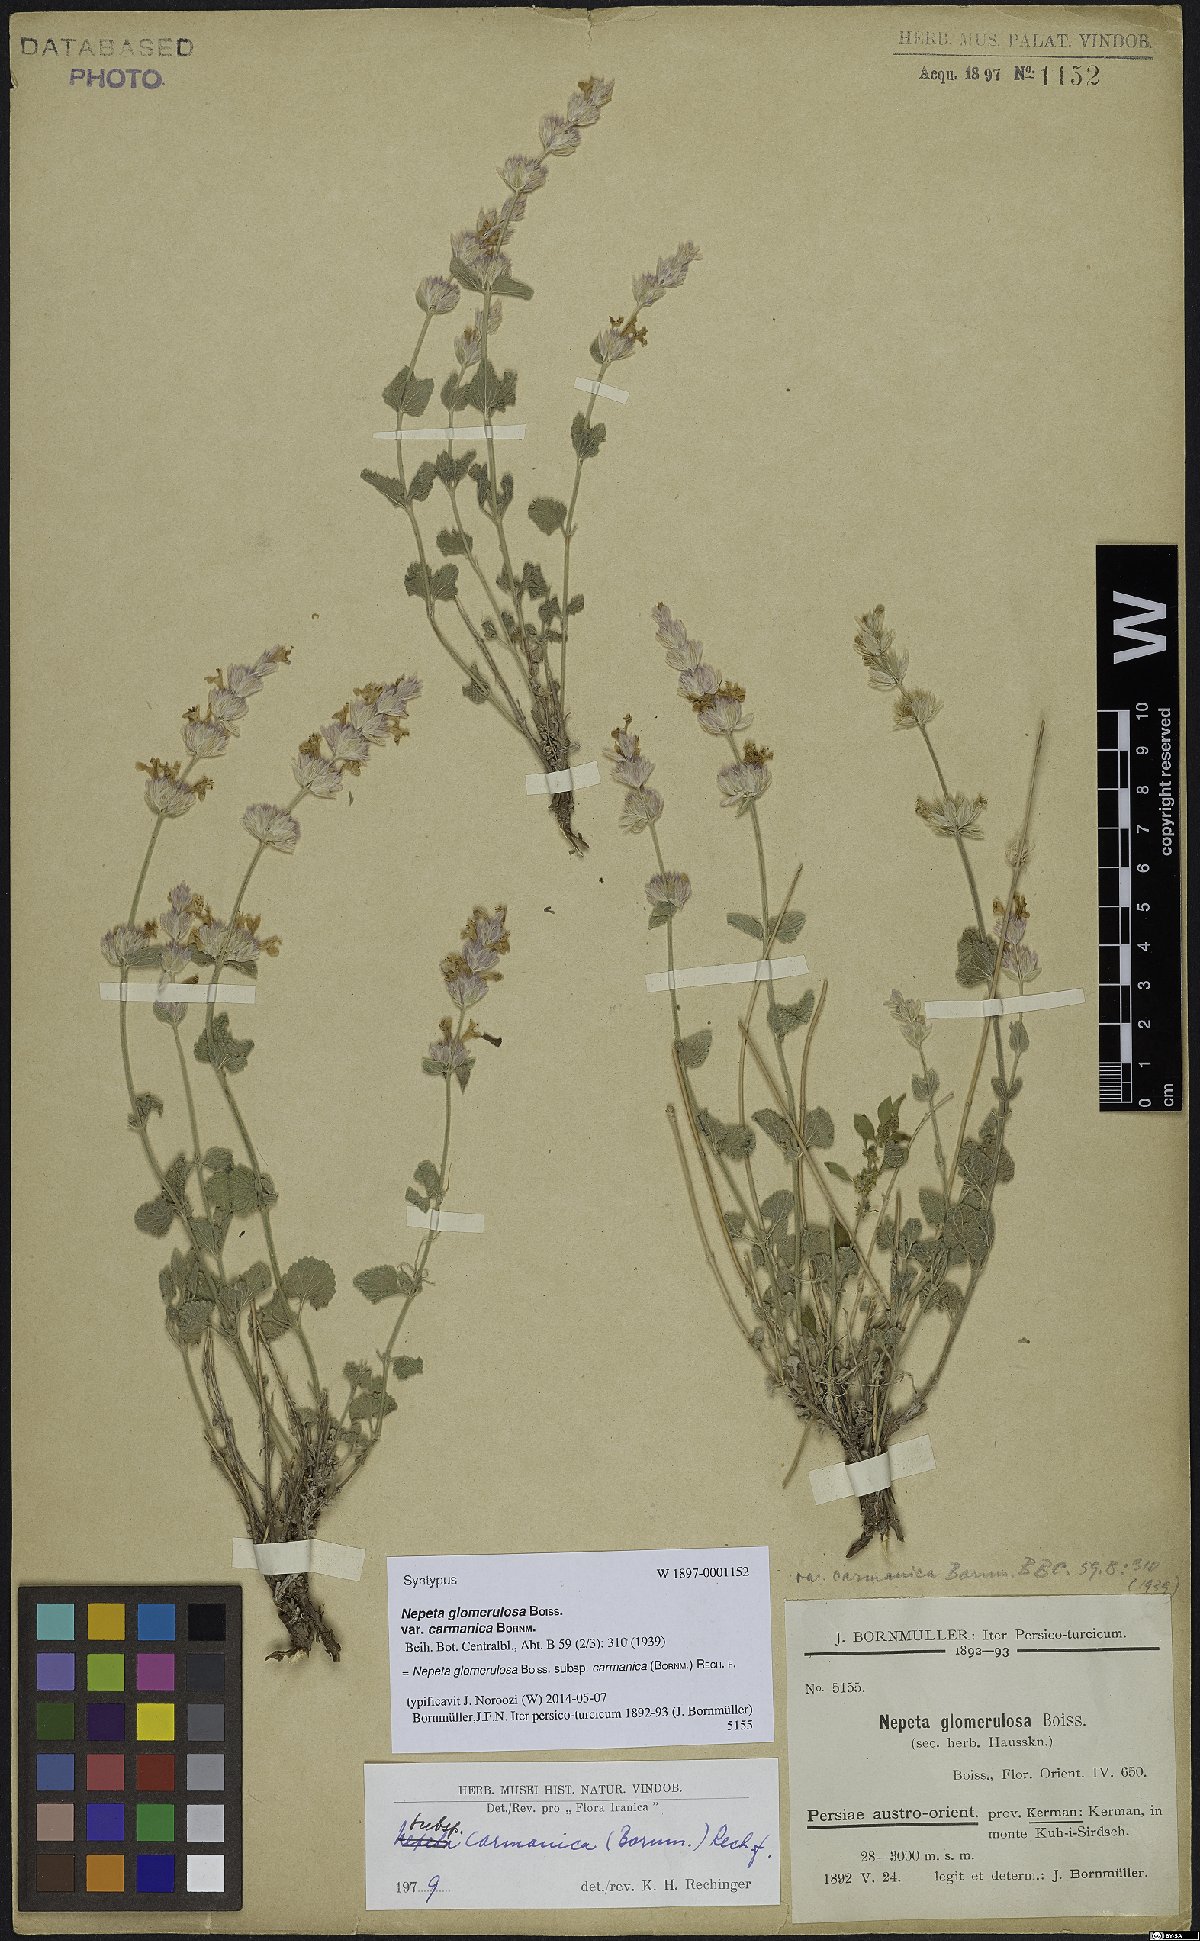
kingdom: Plantae
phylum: Tracheophyta
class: Magnoliopsida
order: Lamiales
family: Lamiaceae
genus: Nepeta
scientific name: Nepeta glomerulosa
